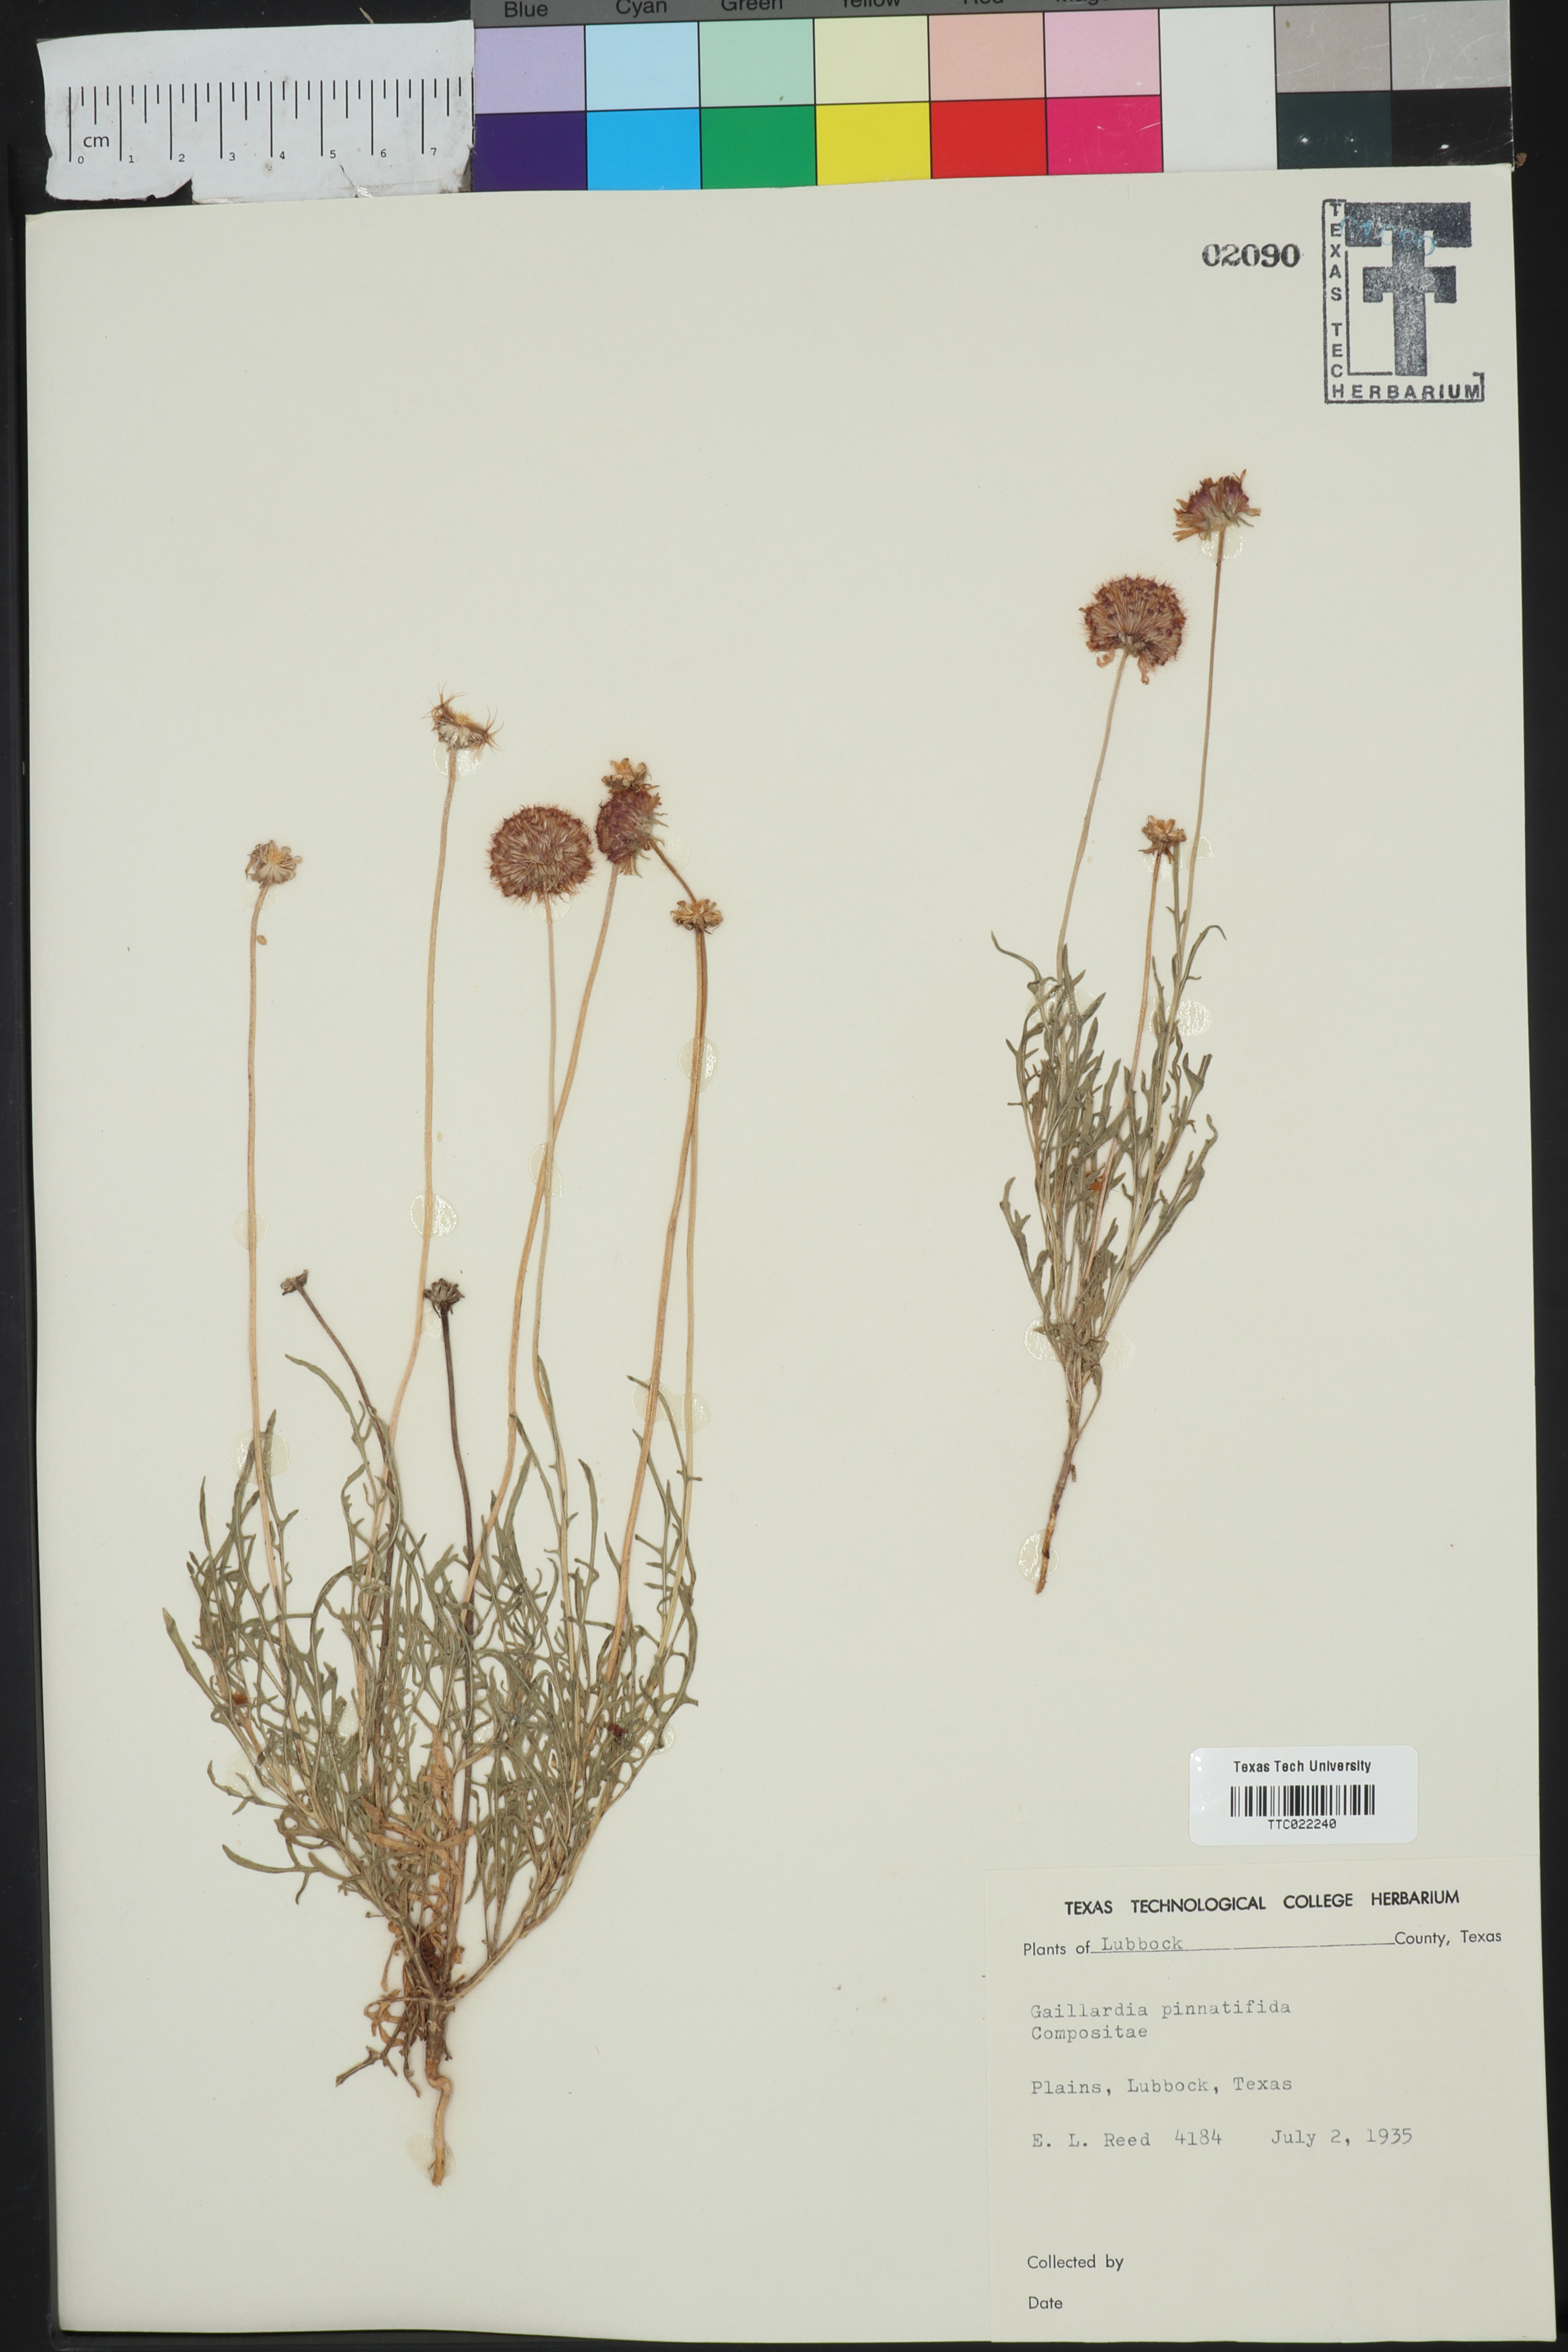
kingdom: Plantae
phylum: Tracheophyta
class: Magnoliopsida
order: Asterales
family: Asteraceae
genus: Gaillardia
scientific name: Gaillardia pinnatifida
